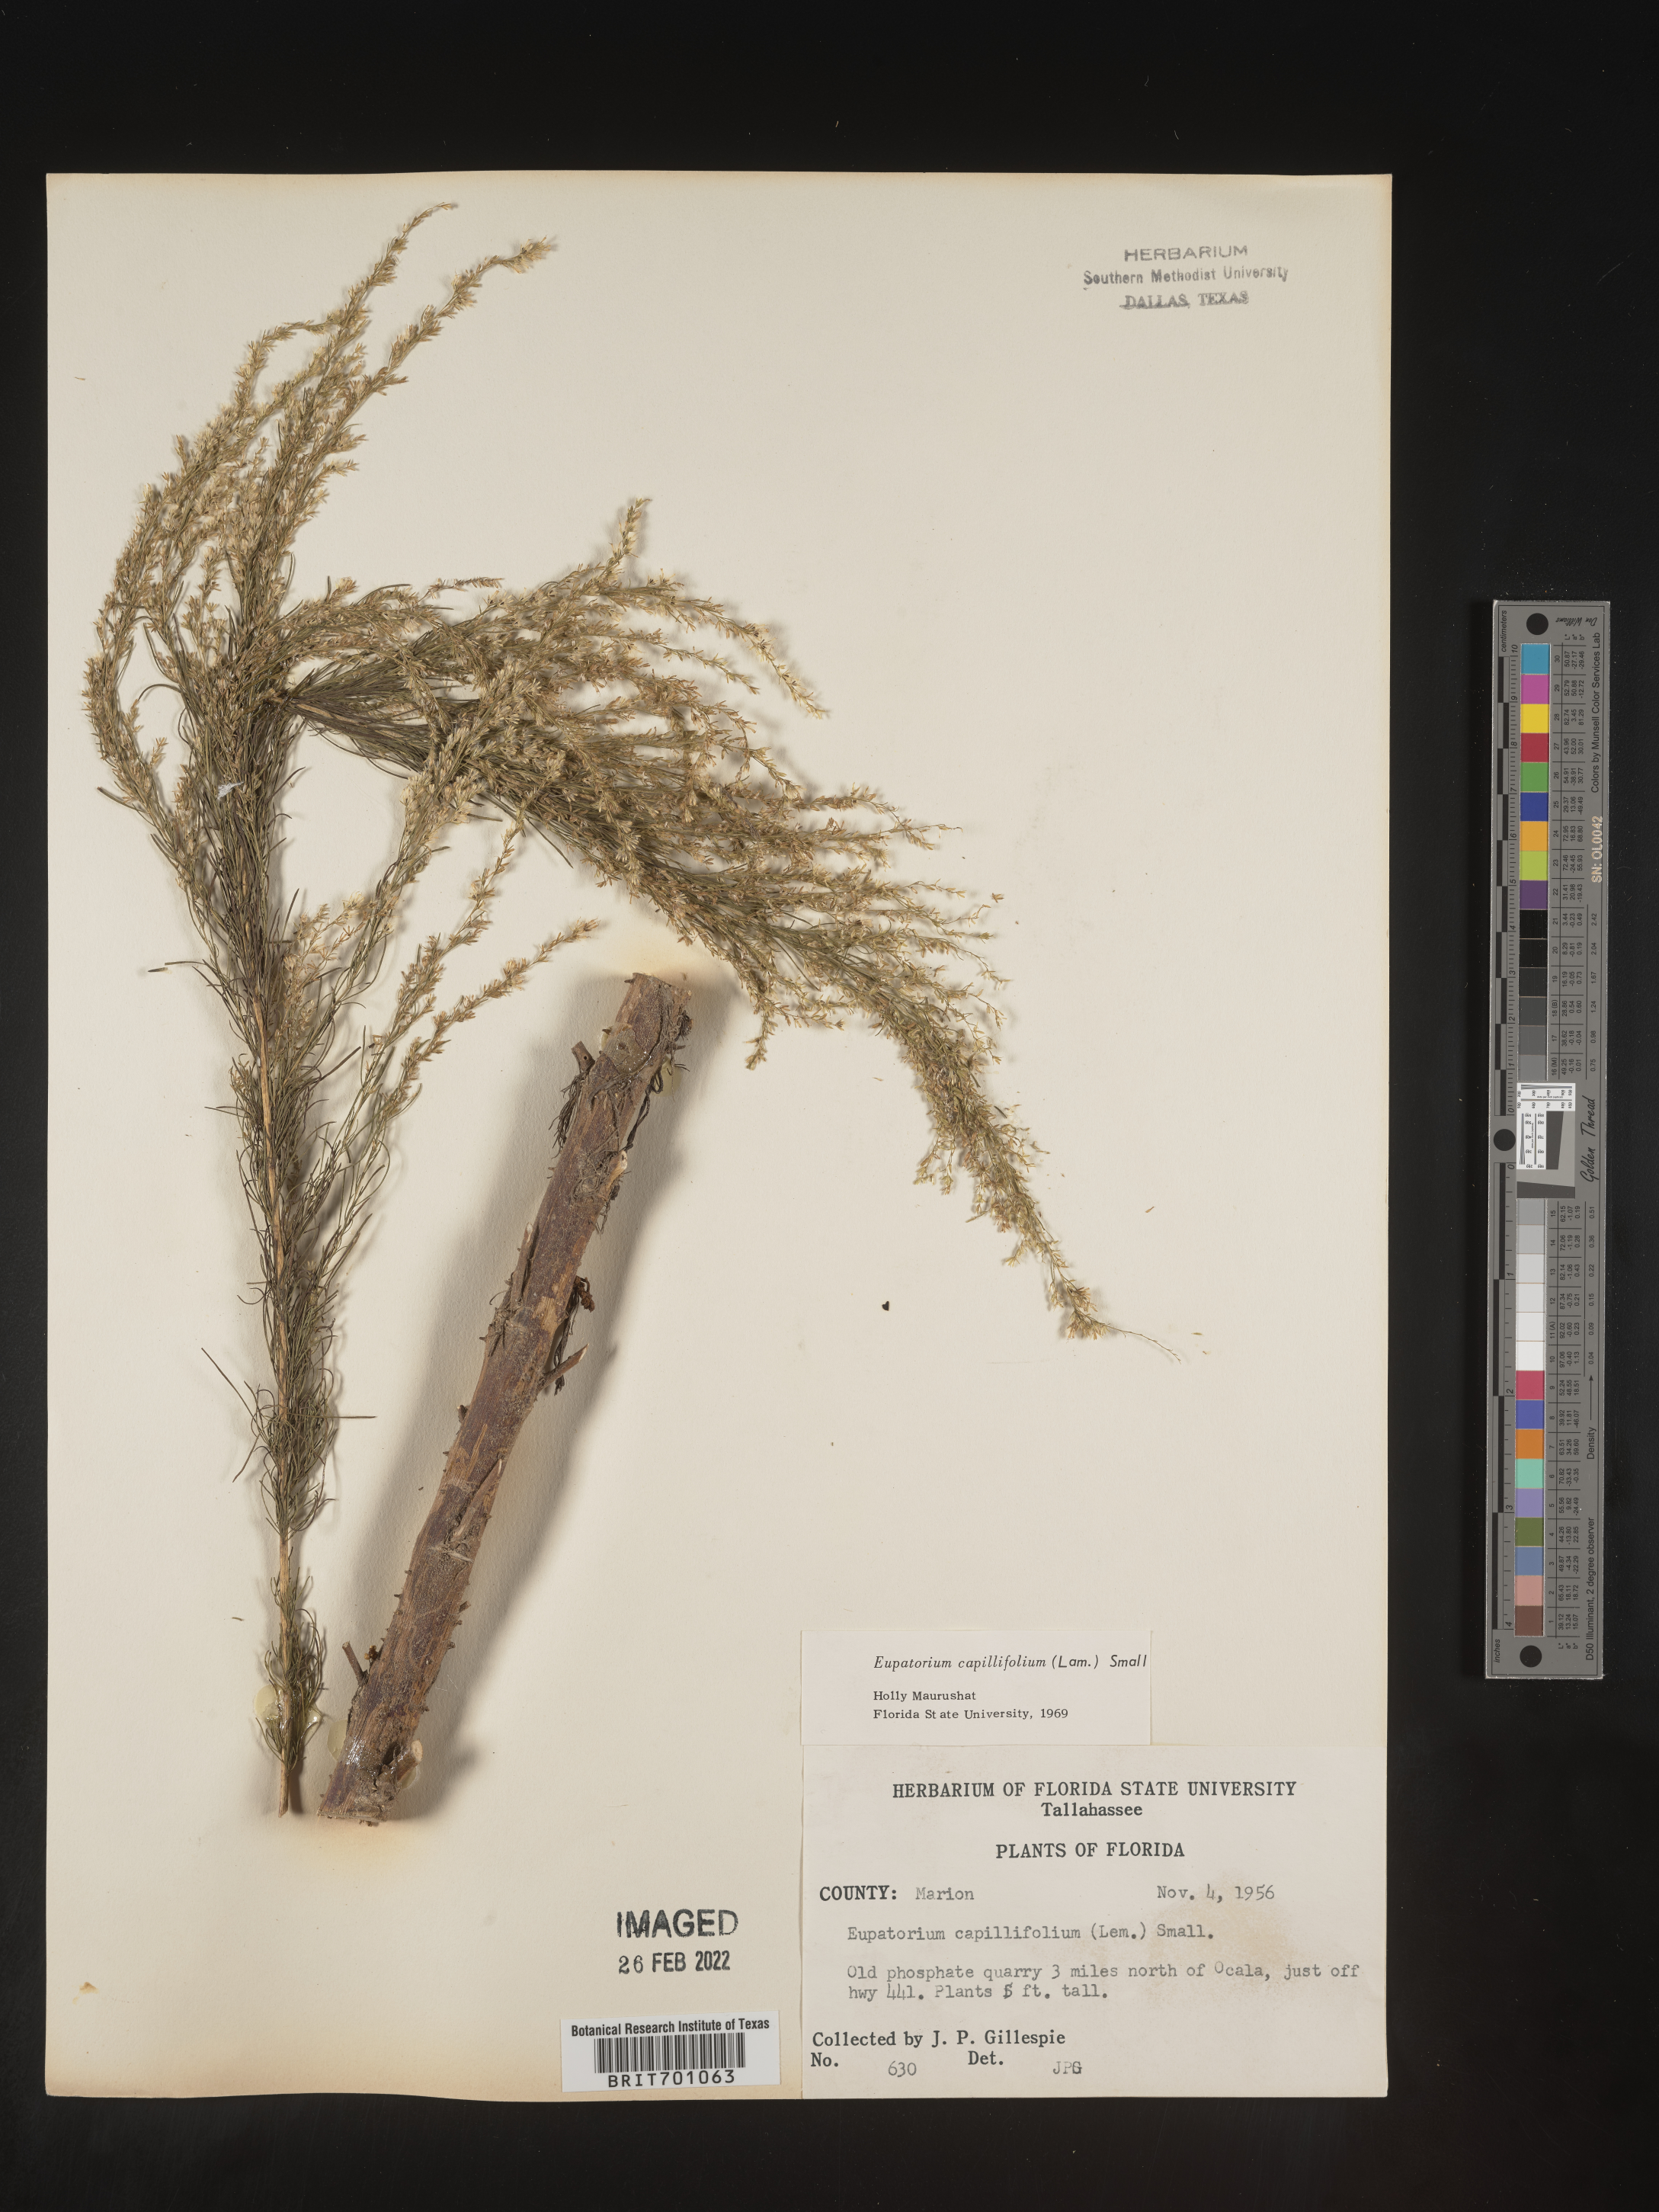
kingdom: Plantae
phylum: Tracheophyta
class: Magnoliopsida
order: Asterales
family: Asteraceae
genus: Eupatorium
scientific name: Eupatorium capillifolium
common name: Dog-fennel
